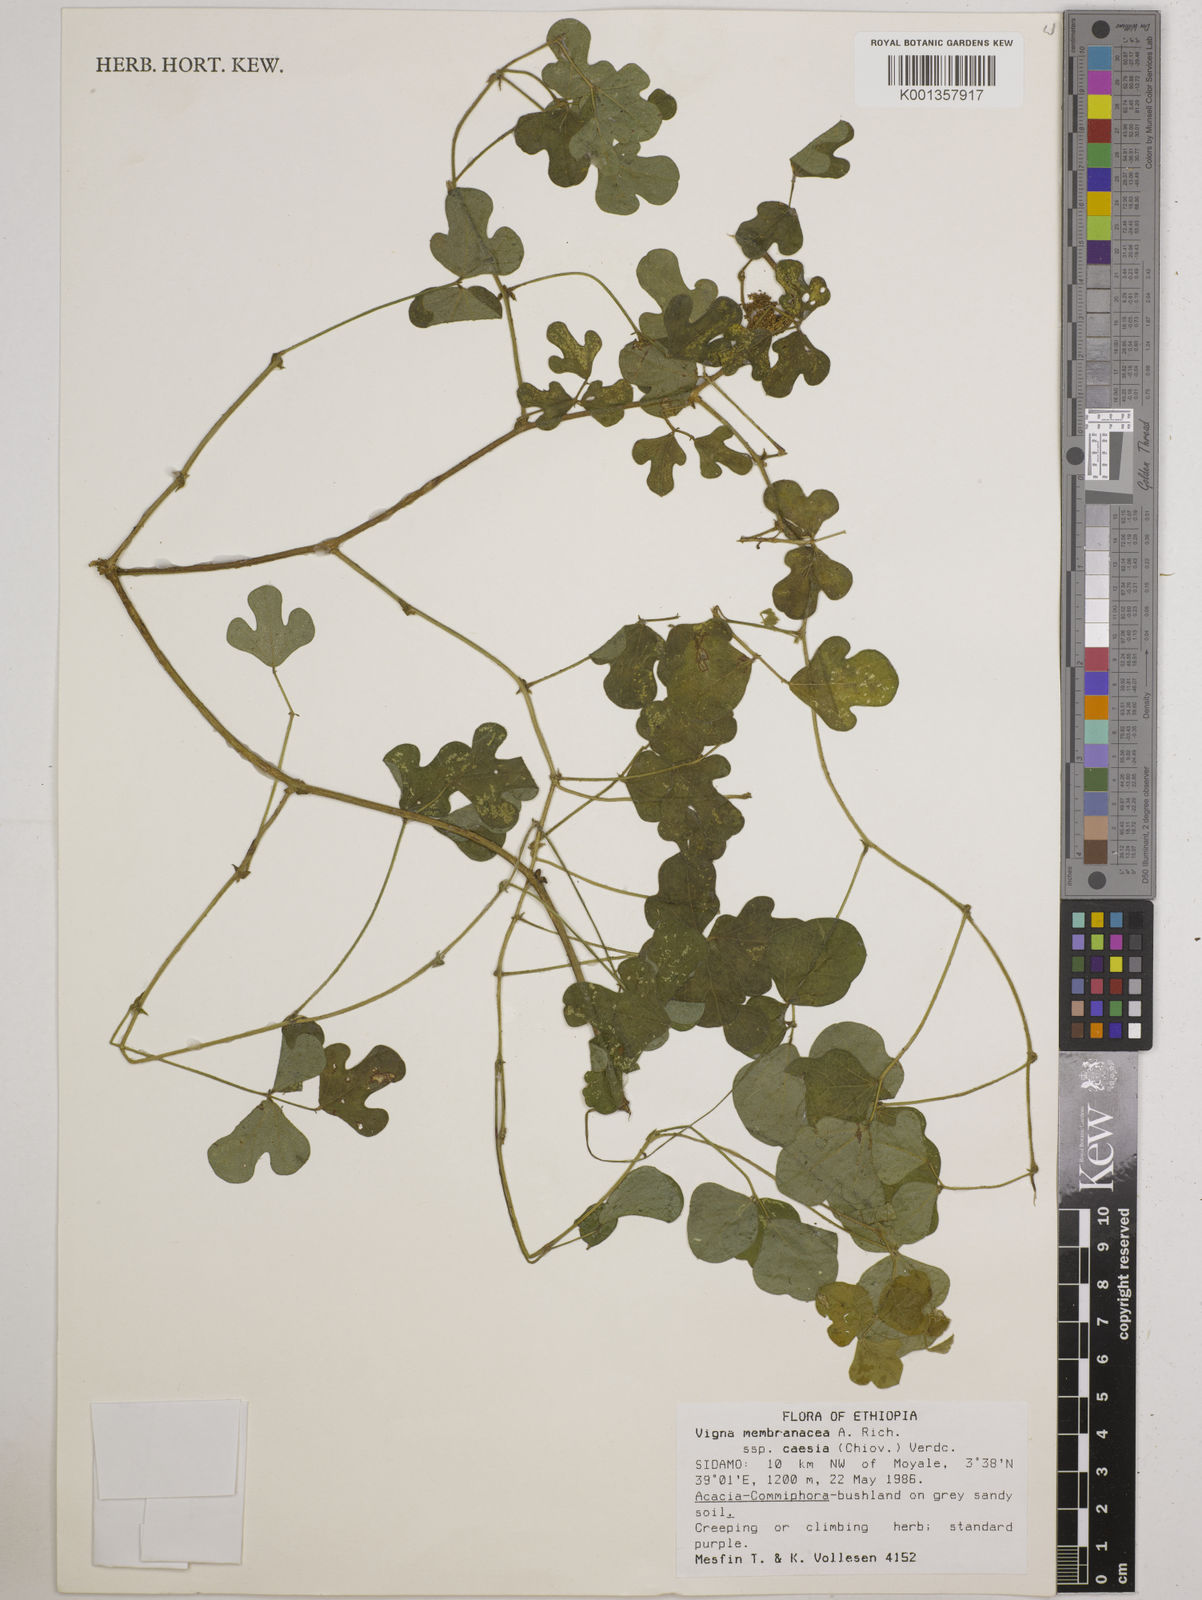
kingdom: Plantae
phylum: Tracheophyta
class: Magnoliopsida
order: Fabales
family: Fabaceae
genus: Vigna
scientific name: Vigna
